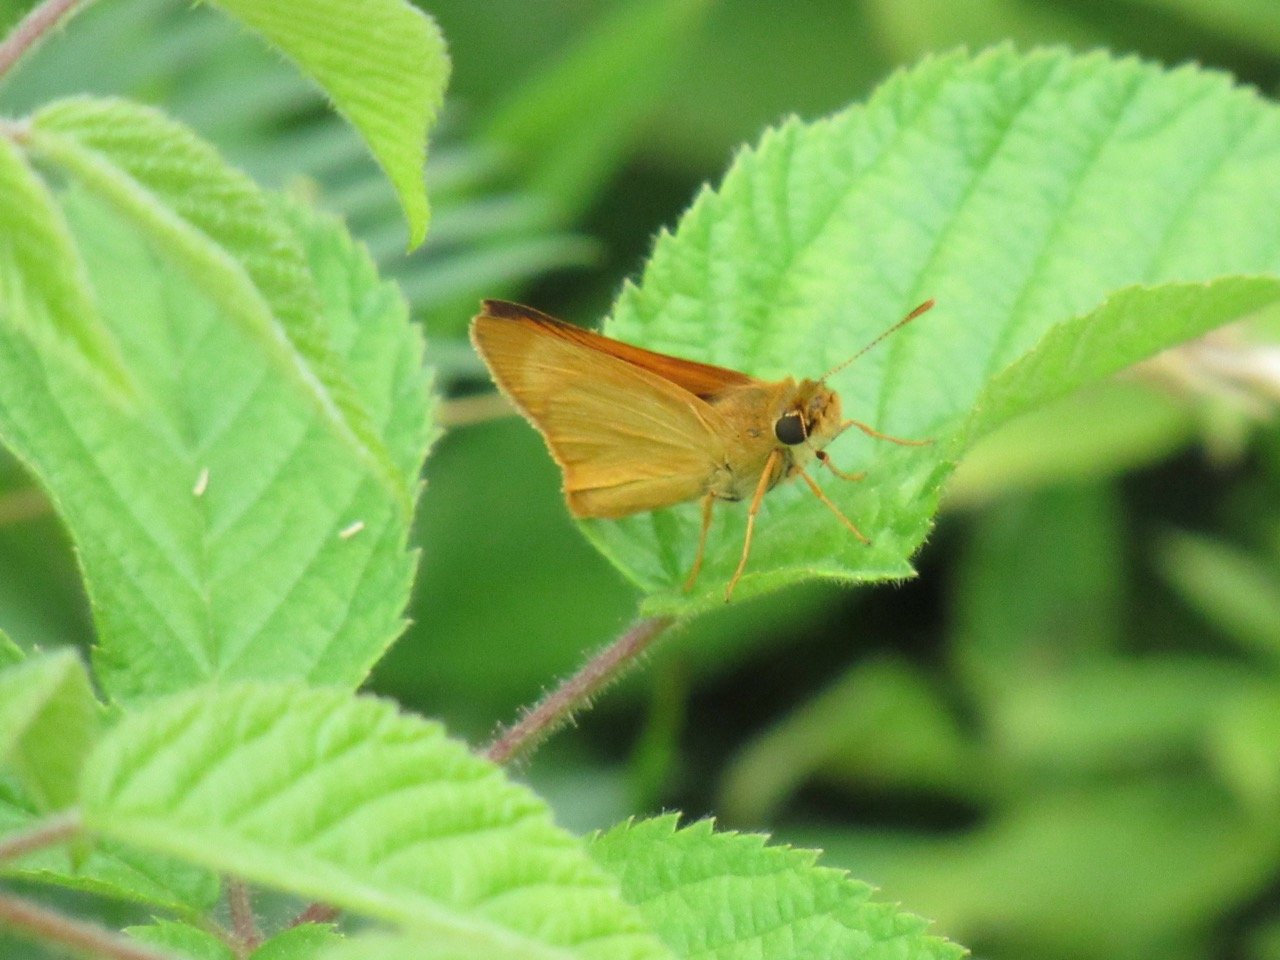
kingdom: Animalia
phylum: Arthropoda
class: Insecta
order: Lepidoptera
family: Hesperiidae
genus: Atrytone
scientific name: Atrytone delaware
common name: Delaware Skipper
